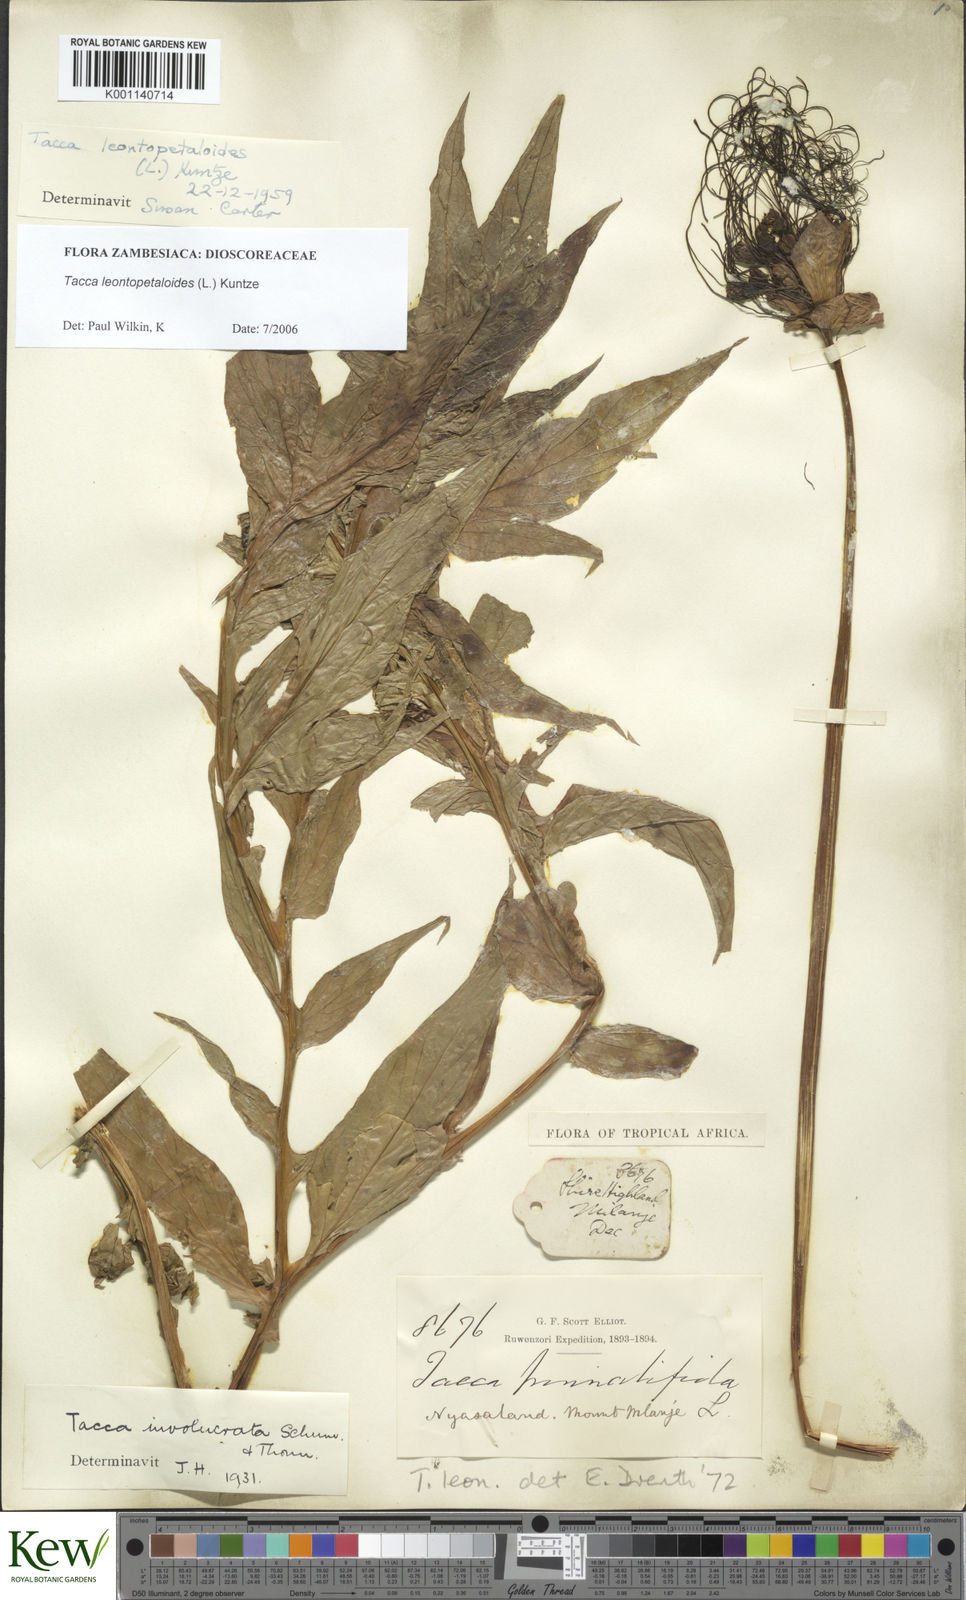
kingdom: Plantae
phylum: Tracheophyta
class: Liliopsida
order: Dioscoreales
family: Dioscoreaceae
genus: Tacca
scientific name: Tacca leontopetaloides
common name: Arrowroot
